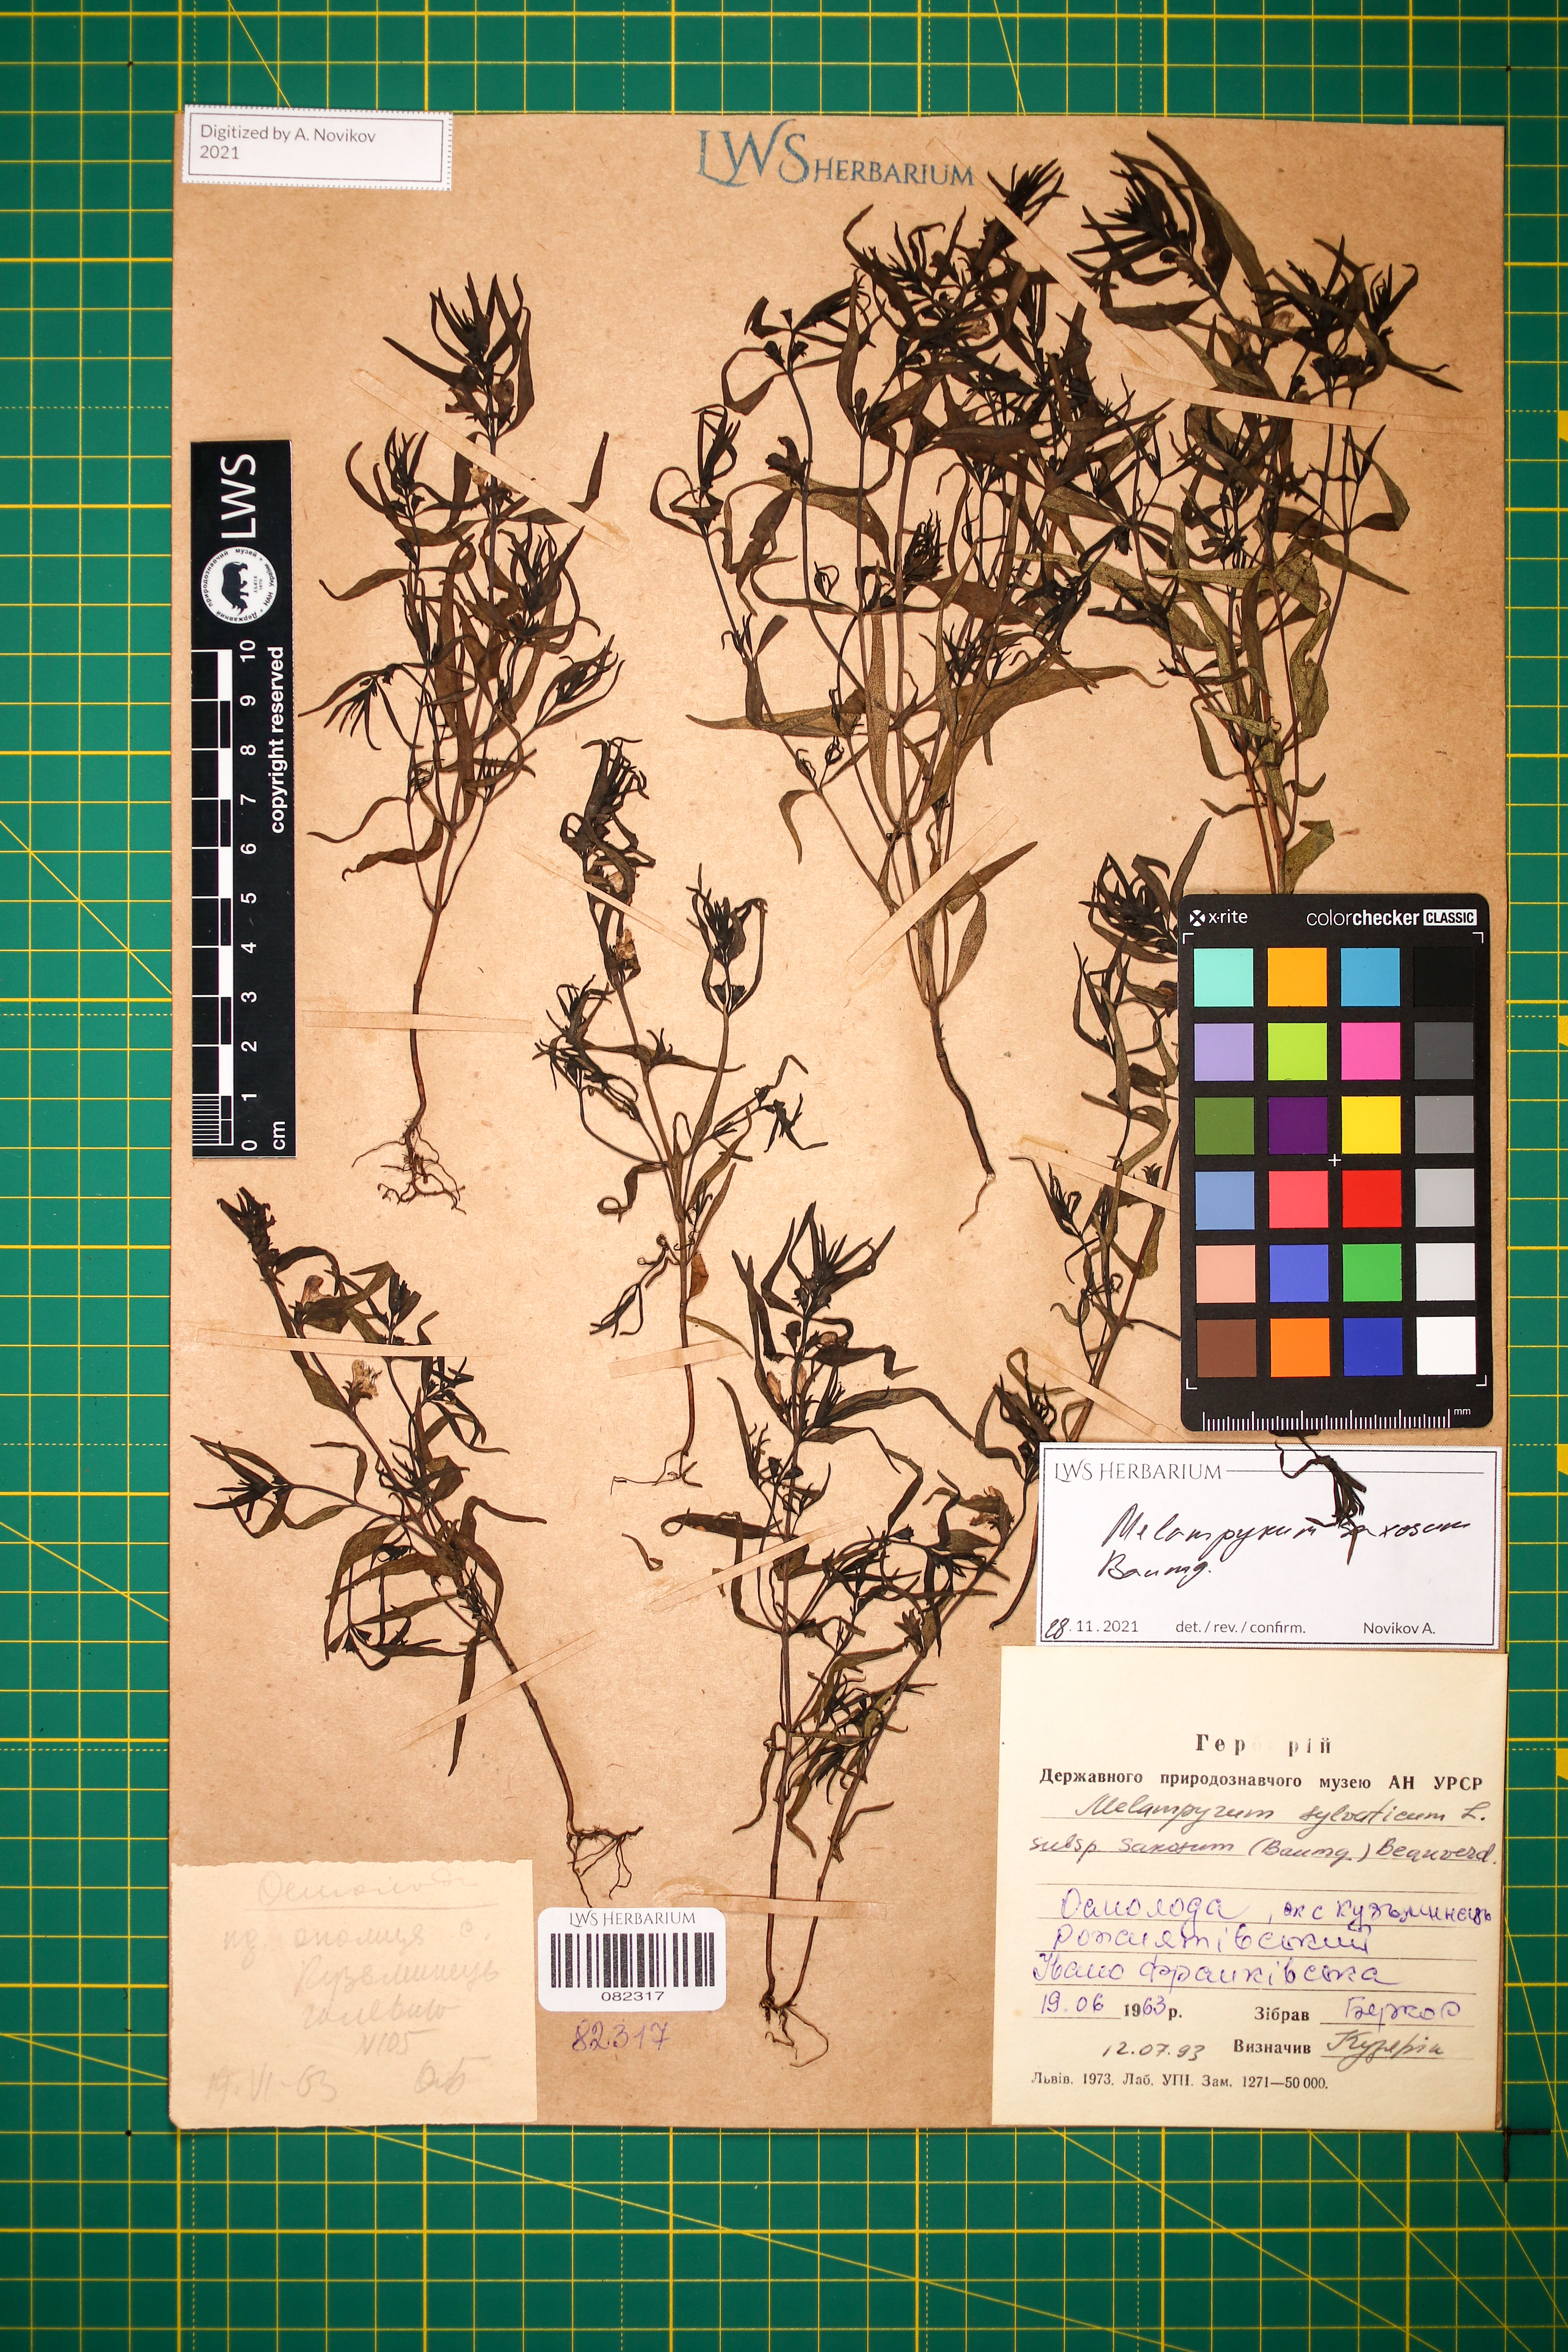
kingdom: Plantae
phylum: Tracheophyta
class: Magnoliopsida
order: Lamiales
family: Orobanchaceae
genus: Melampyrum
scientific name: Melampyrum saxosum
